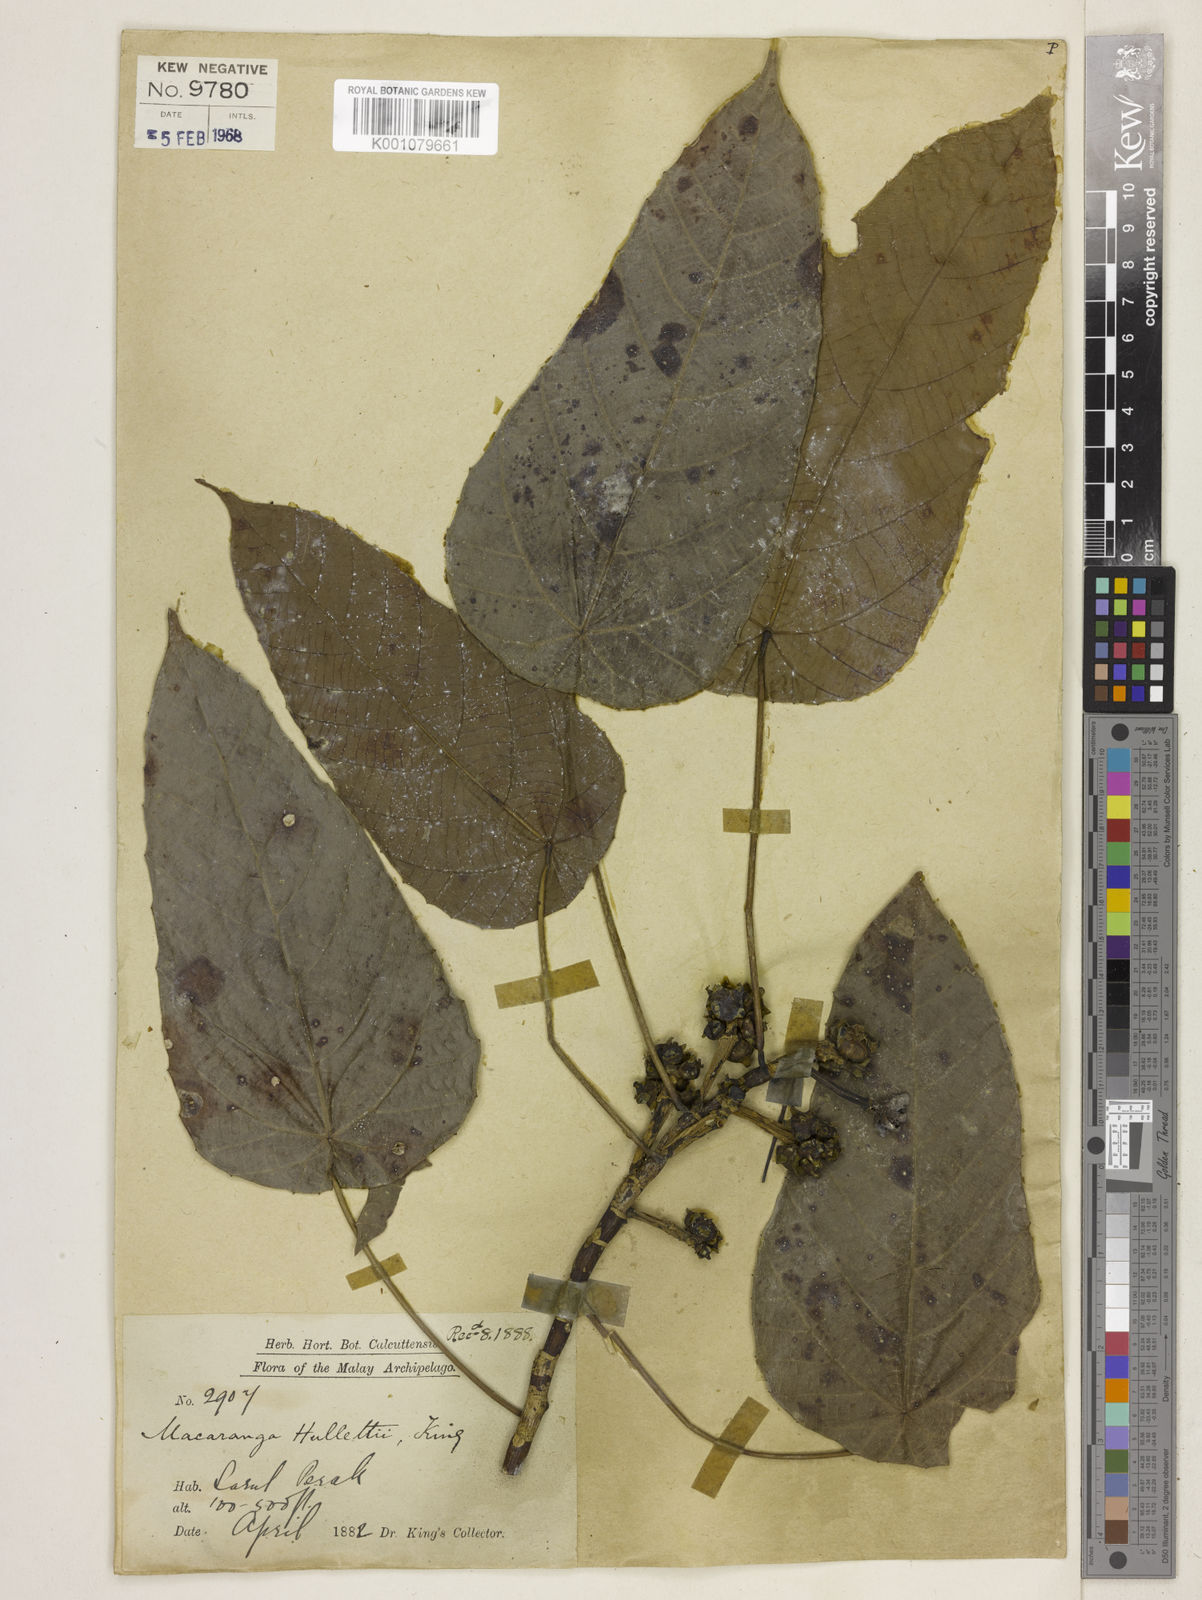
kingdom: Plantae
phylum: Tracheophyta
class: Magnoliopsida
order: Malpighiales
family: Euphorbiaceae
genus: Macaranga
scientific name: Macaranga hullettii
